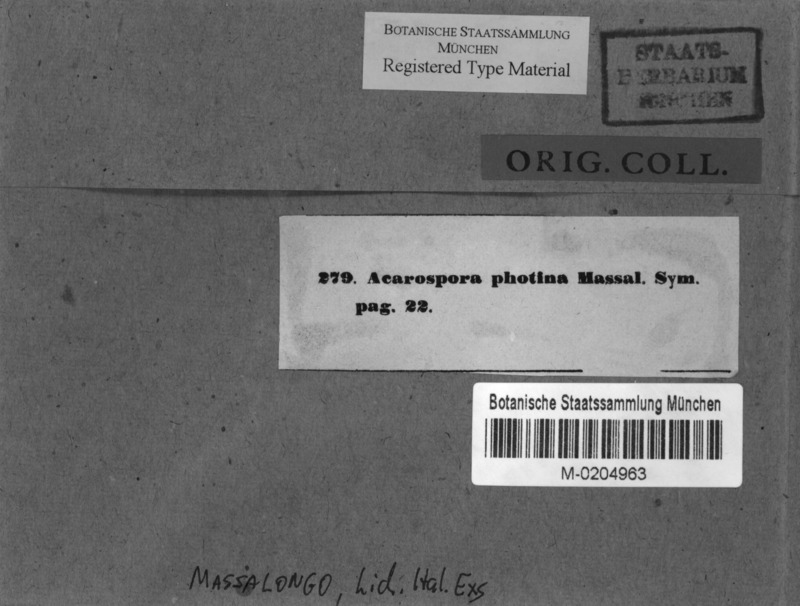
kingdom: Fungi
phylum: Ascomycota
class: Lecanoromycetes
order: Acarosporales
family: Acarosporaceae
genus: Acarospora
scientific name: Acarospora photina
